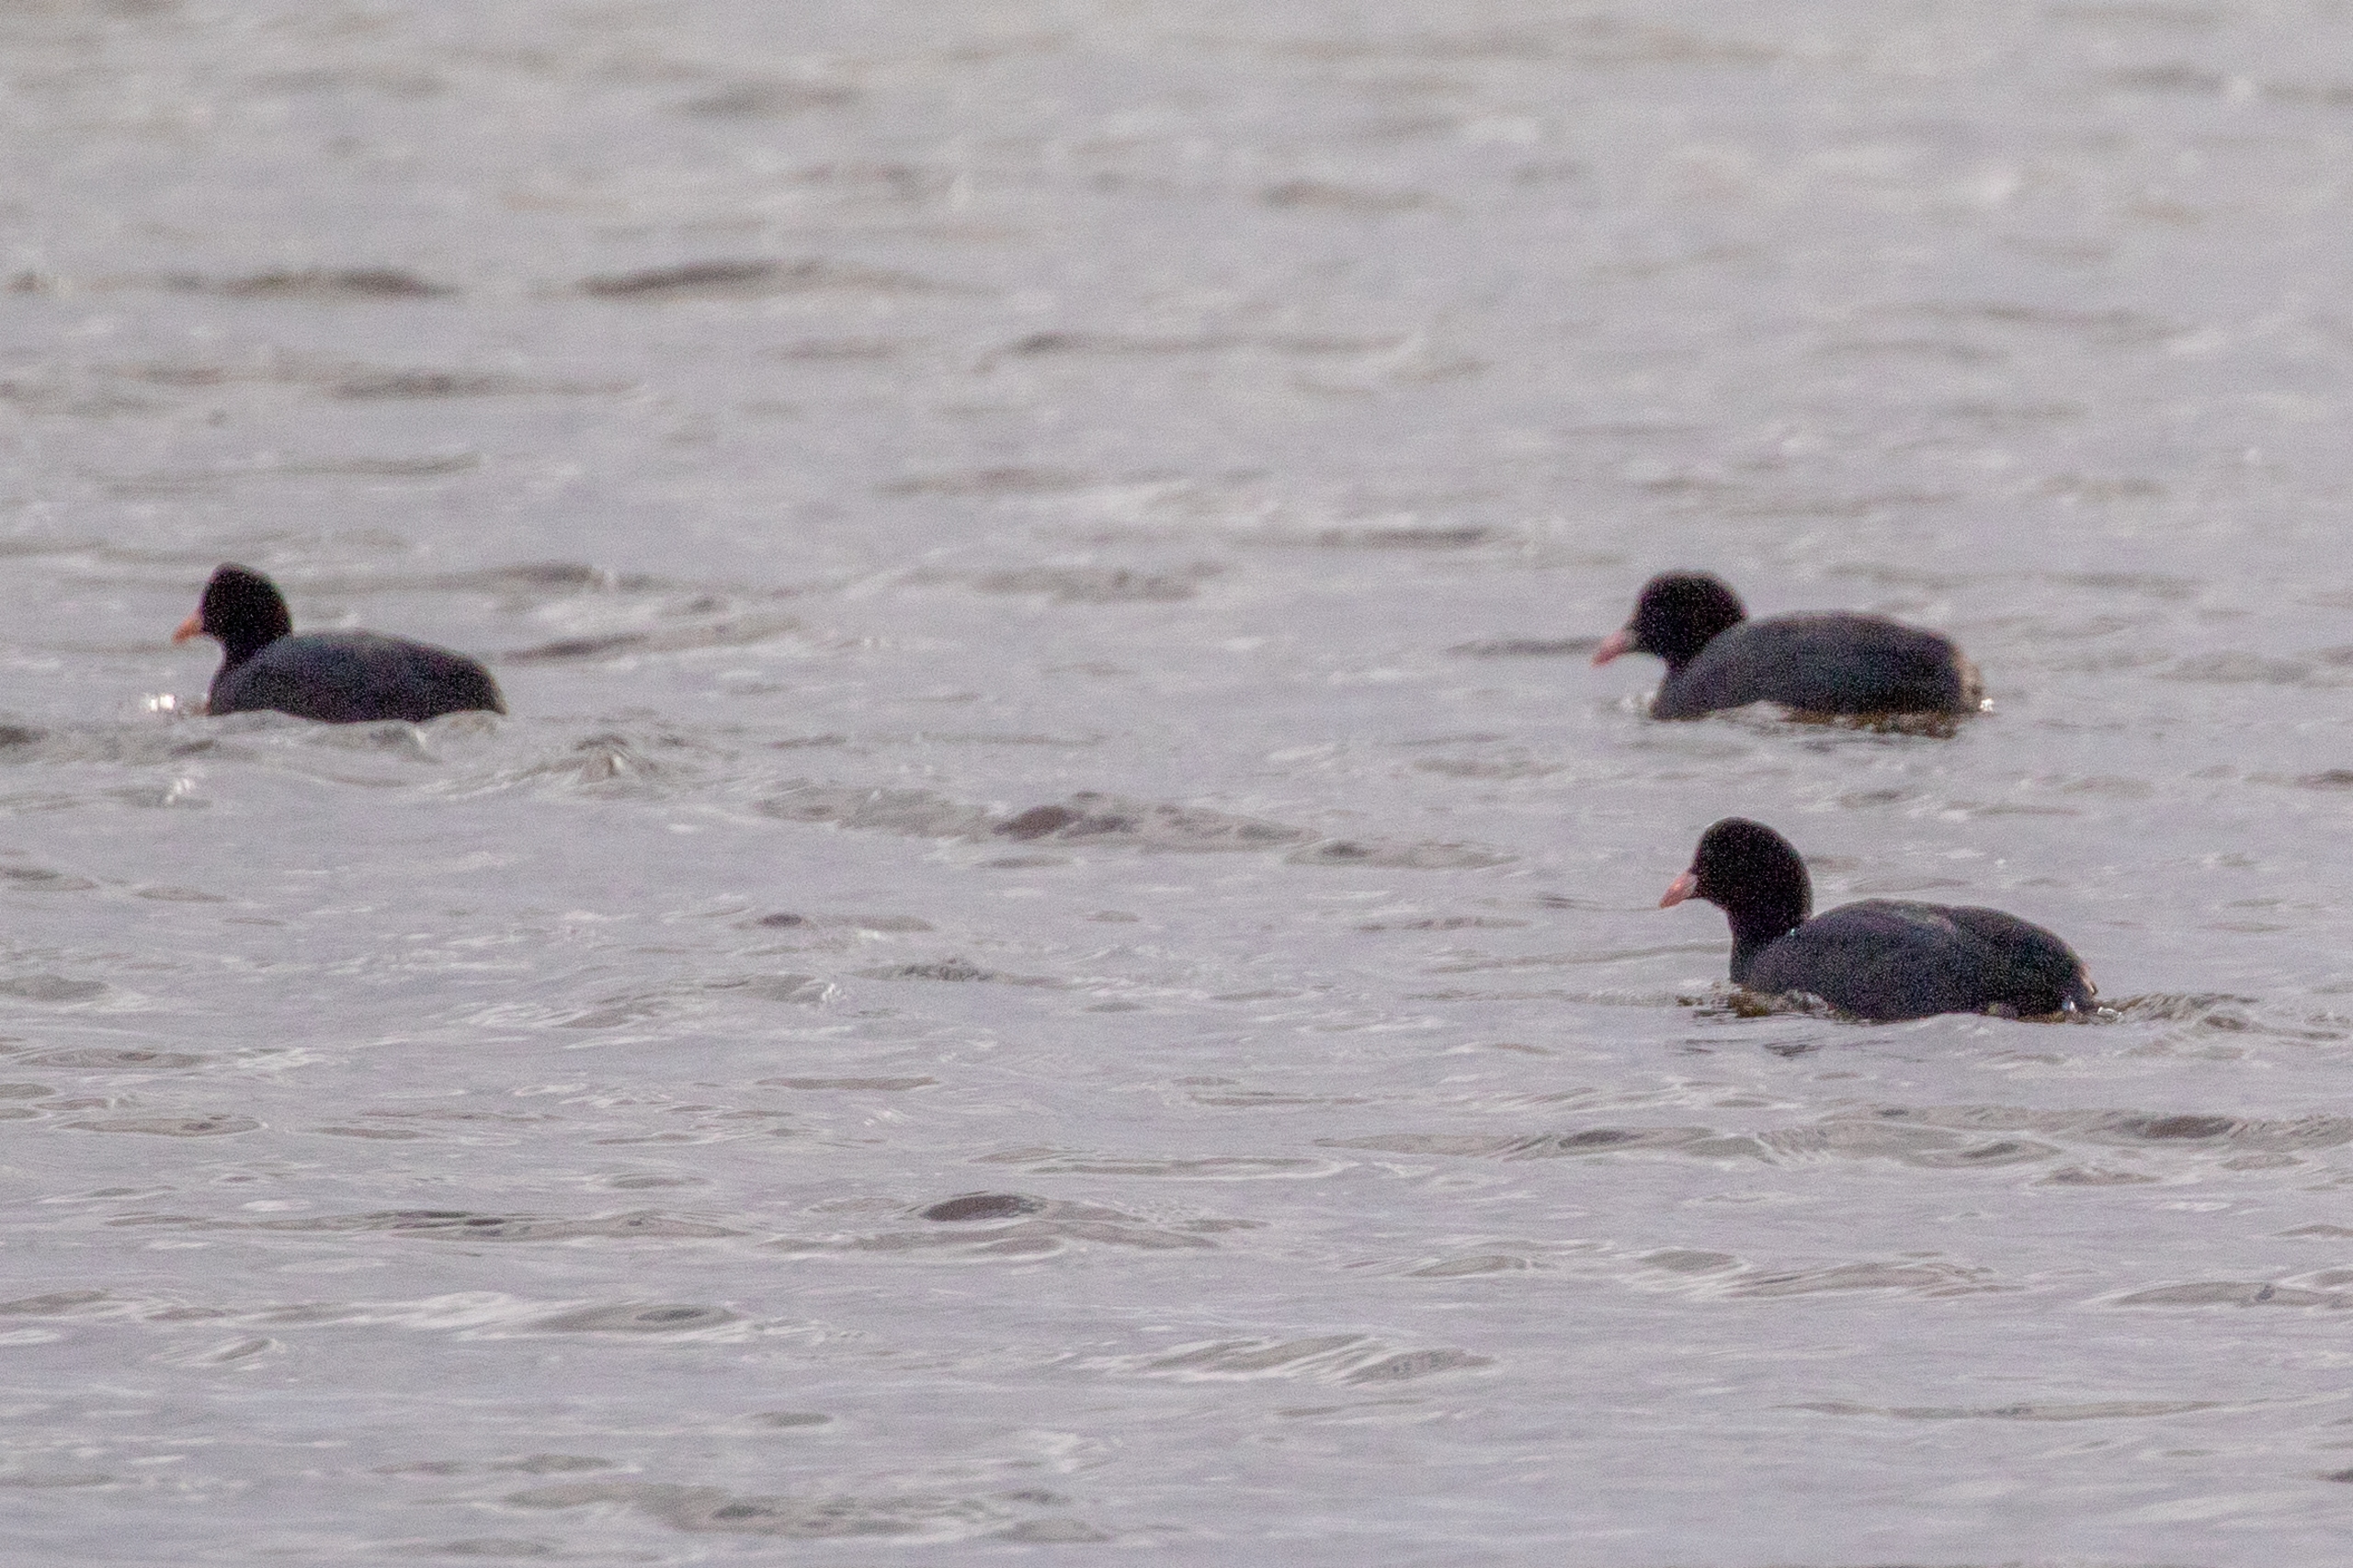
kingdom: Animalia
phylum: Chordata
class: Aves
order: Gruiformes
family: Rallidae
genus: Fulica
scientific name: Fulica atra
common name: Blishøne
